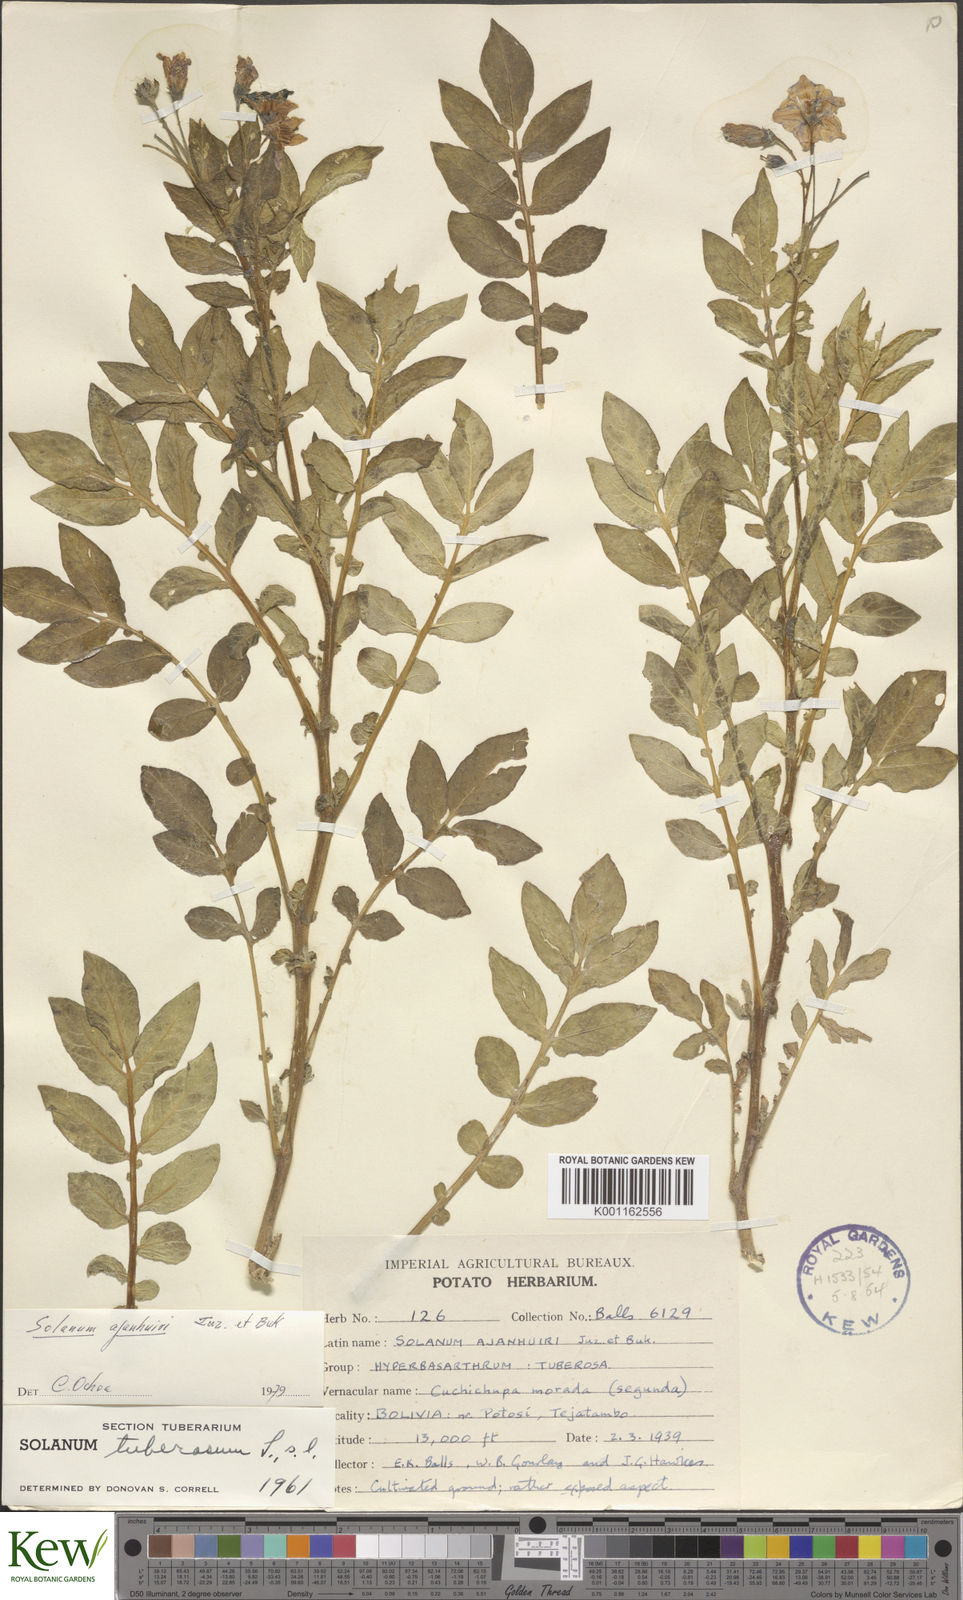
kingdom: Plantae
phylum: Tracheophyta
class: Magnoliopsida
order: Solanales
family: Solanaceae
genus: Solanum
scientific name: Solanum ajanhuiri
